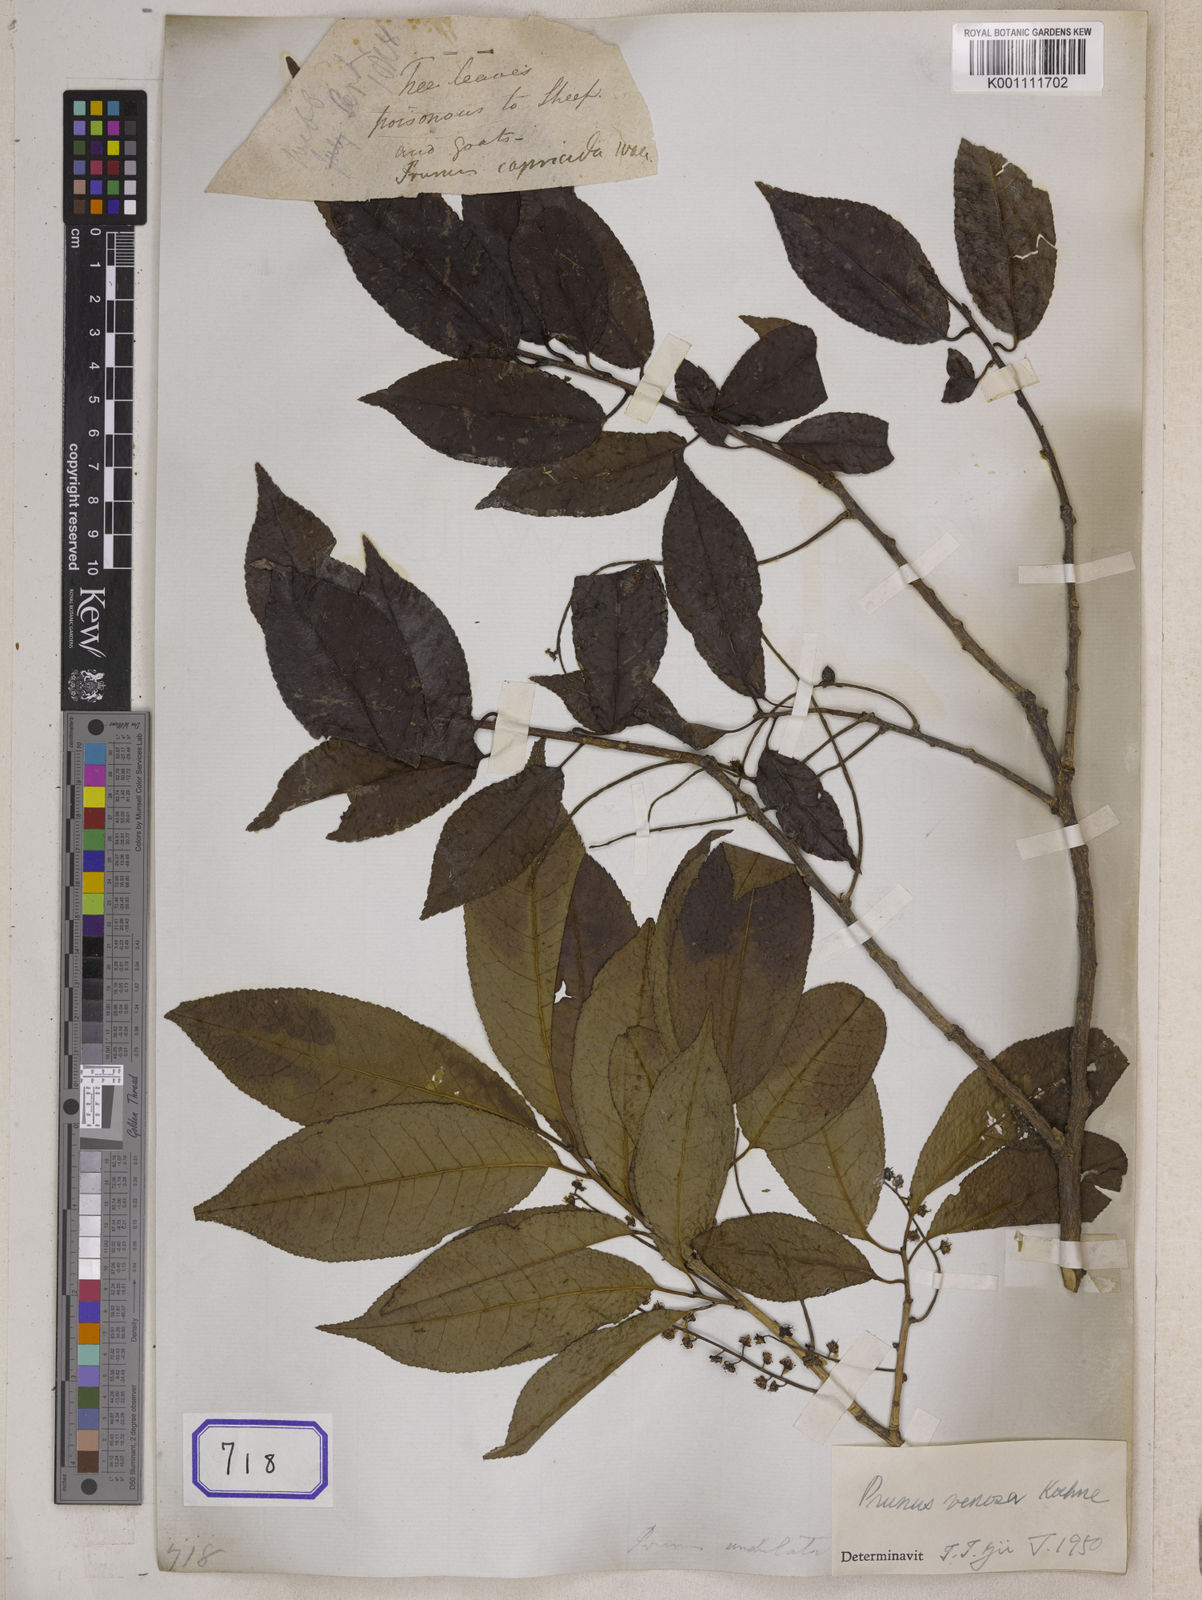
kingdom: Plantae
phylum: Tracheophyta
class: Magnoliopsida
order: Rosales
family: Rosaceae
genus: Prunus
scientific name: Prunus undulata
